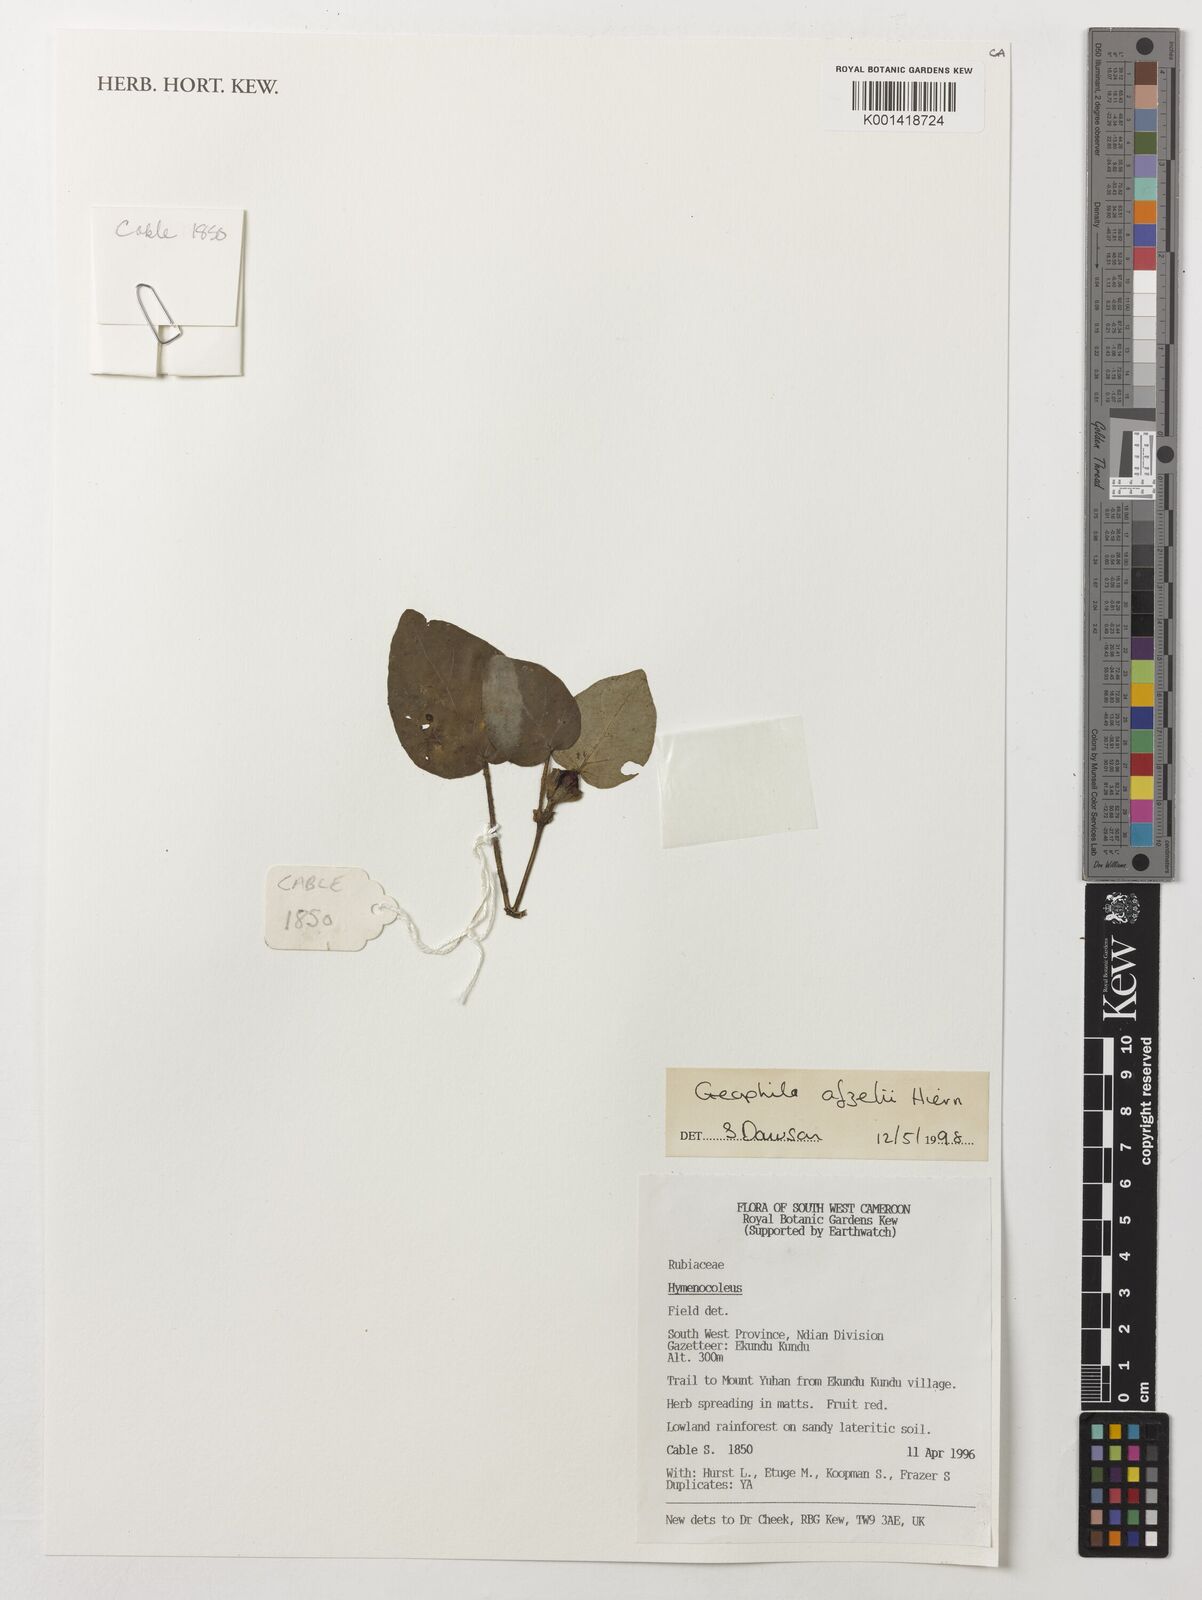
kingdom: Plantae
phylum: Tracheophyta
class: Magnoliopsida
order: Gentianales
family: Rubiaceae
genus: Geophila
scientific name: Geophila afzelii
